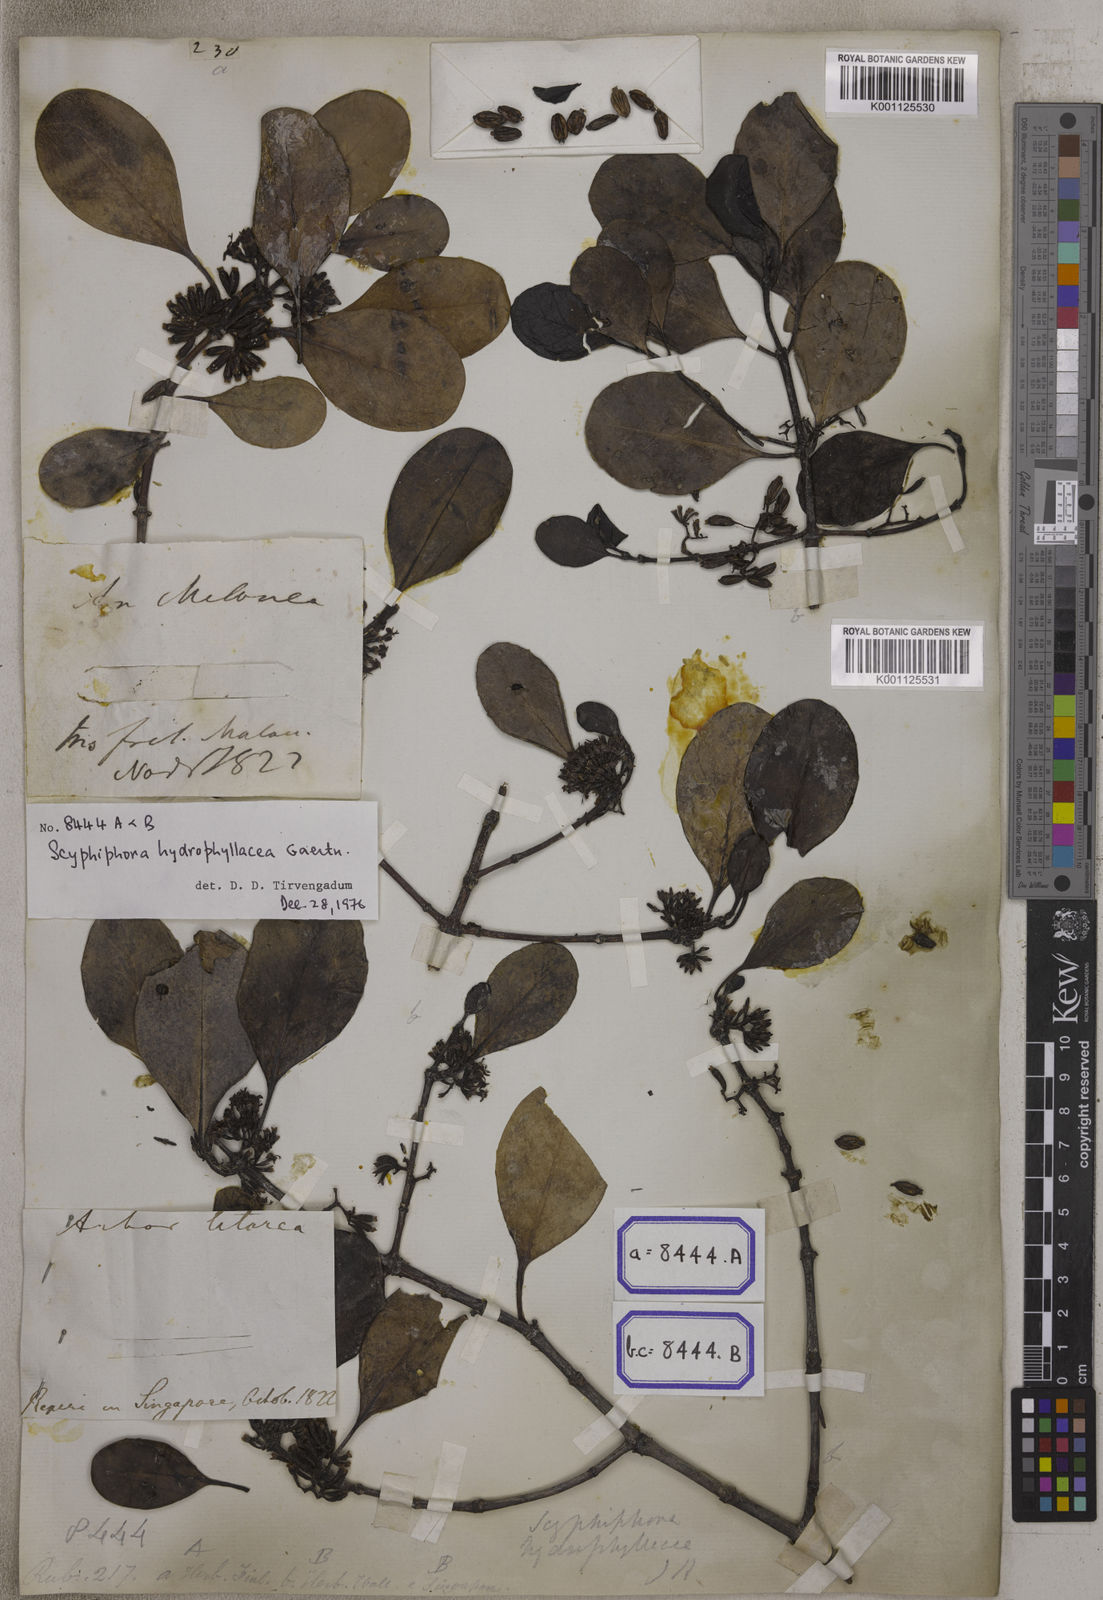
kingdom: Plantae
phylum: Tracheophyta
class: Magnoliopsida
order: Gentianales
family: Rubiaceae
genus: Scyphiphora
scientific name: Scyphiphora hydrophylacea
